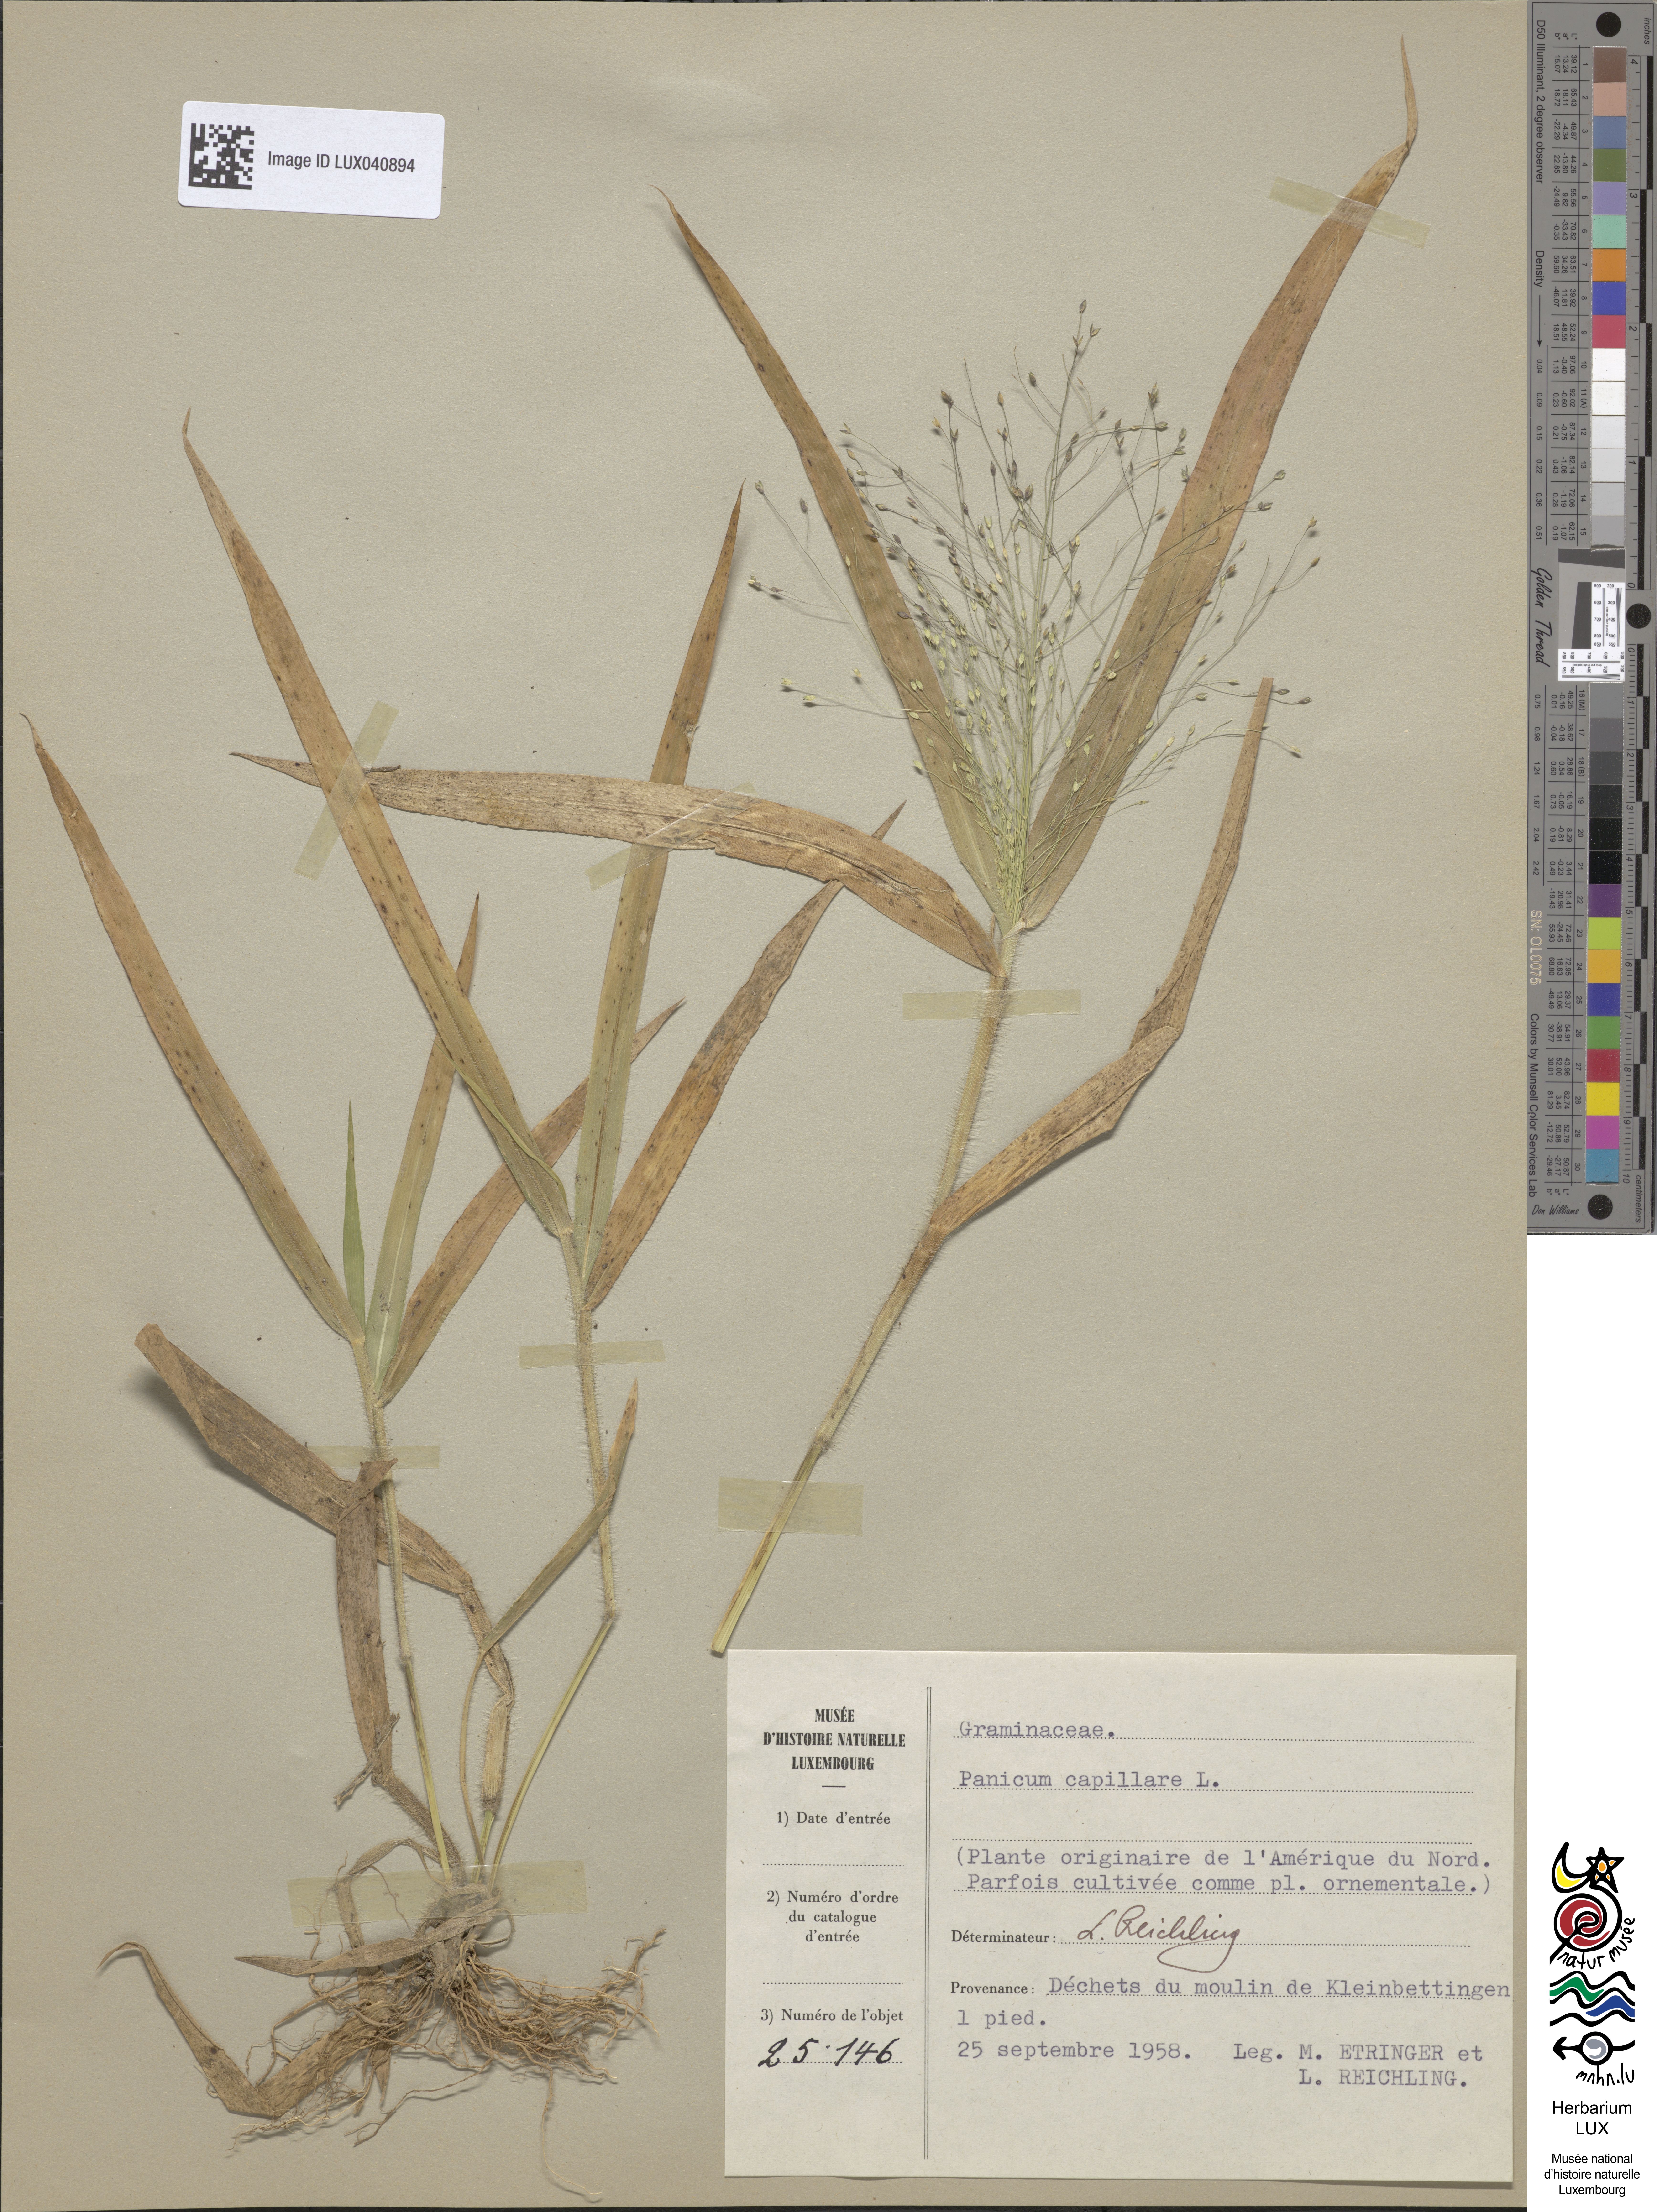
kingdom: Plantae
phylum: Tracheophyta
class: Liliopsida
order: Poales
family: Poaceae
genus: Panicum
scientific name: Panicum capillare
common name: Witch-grass
